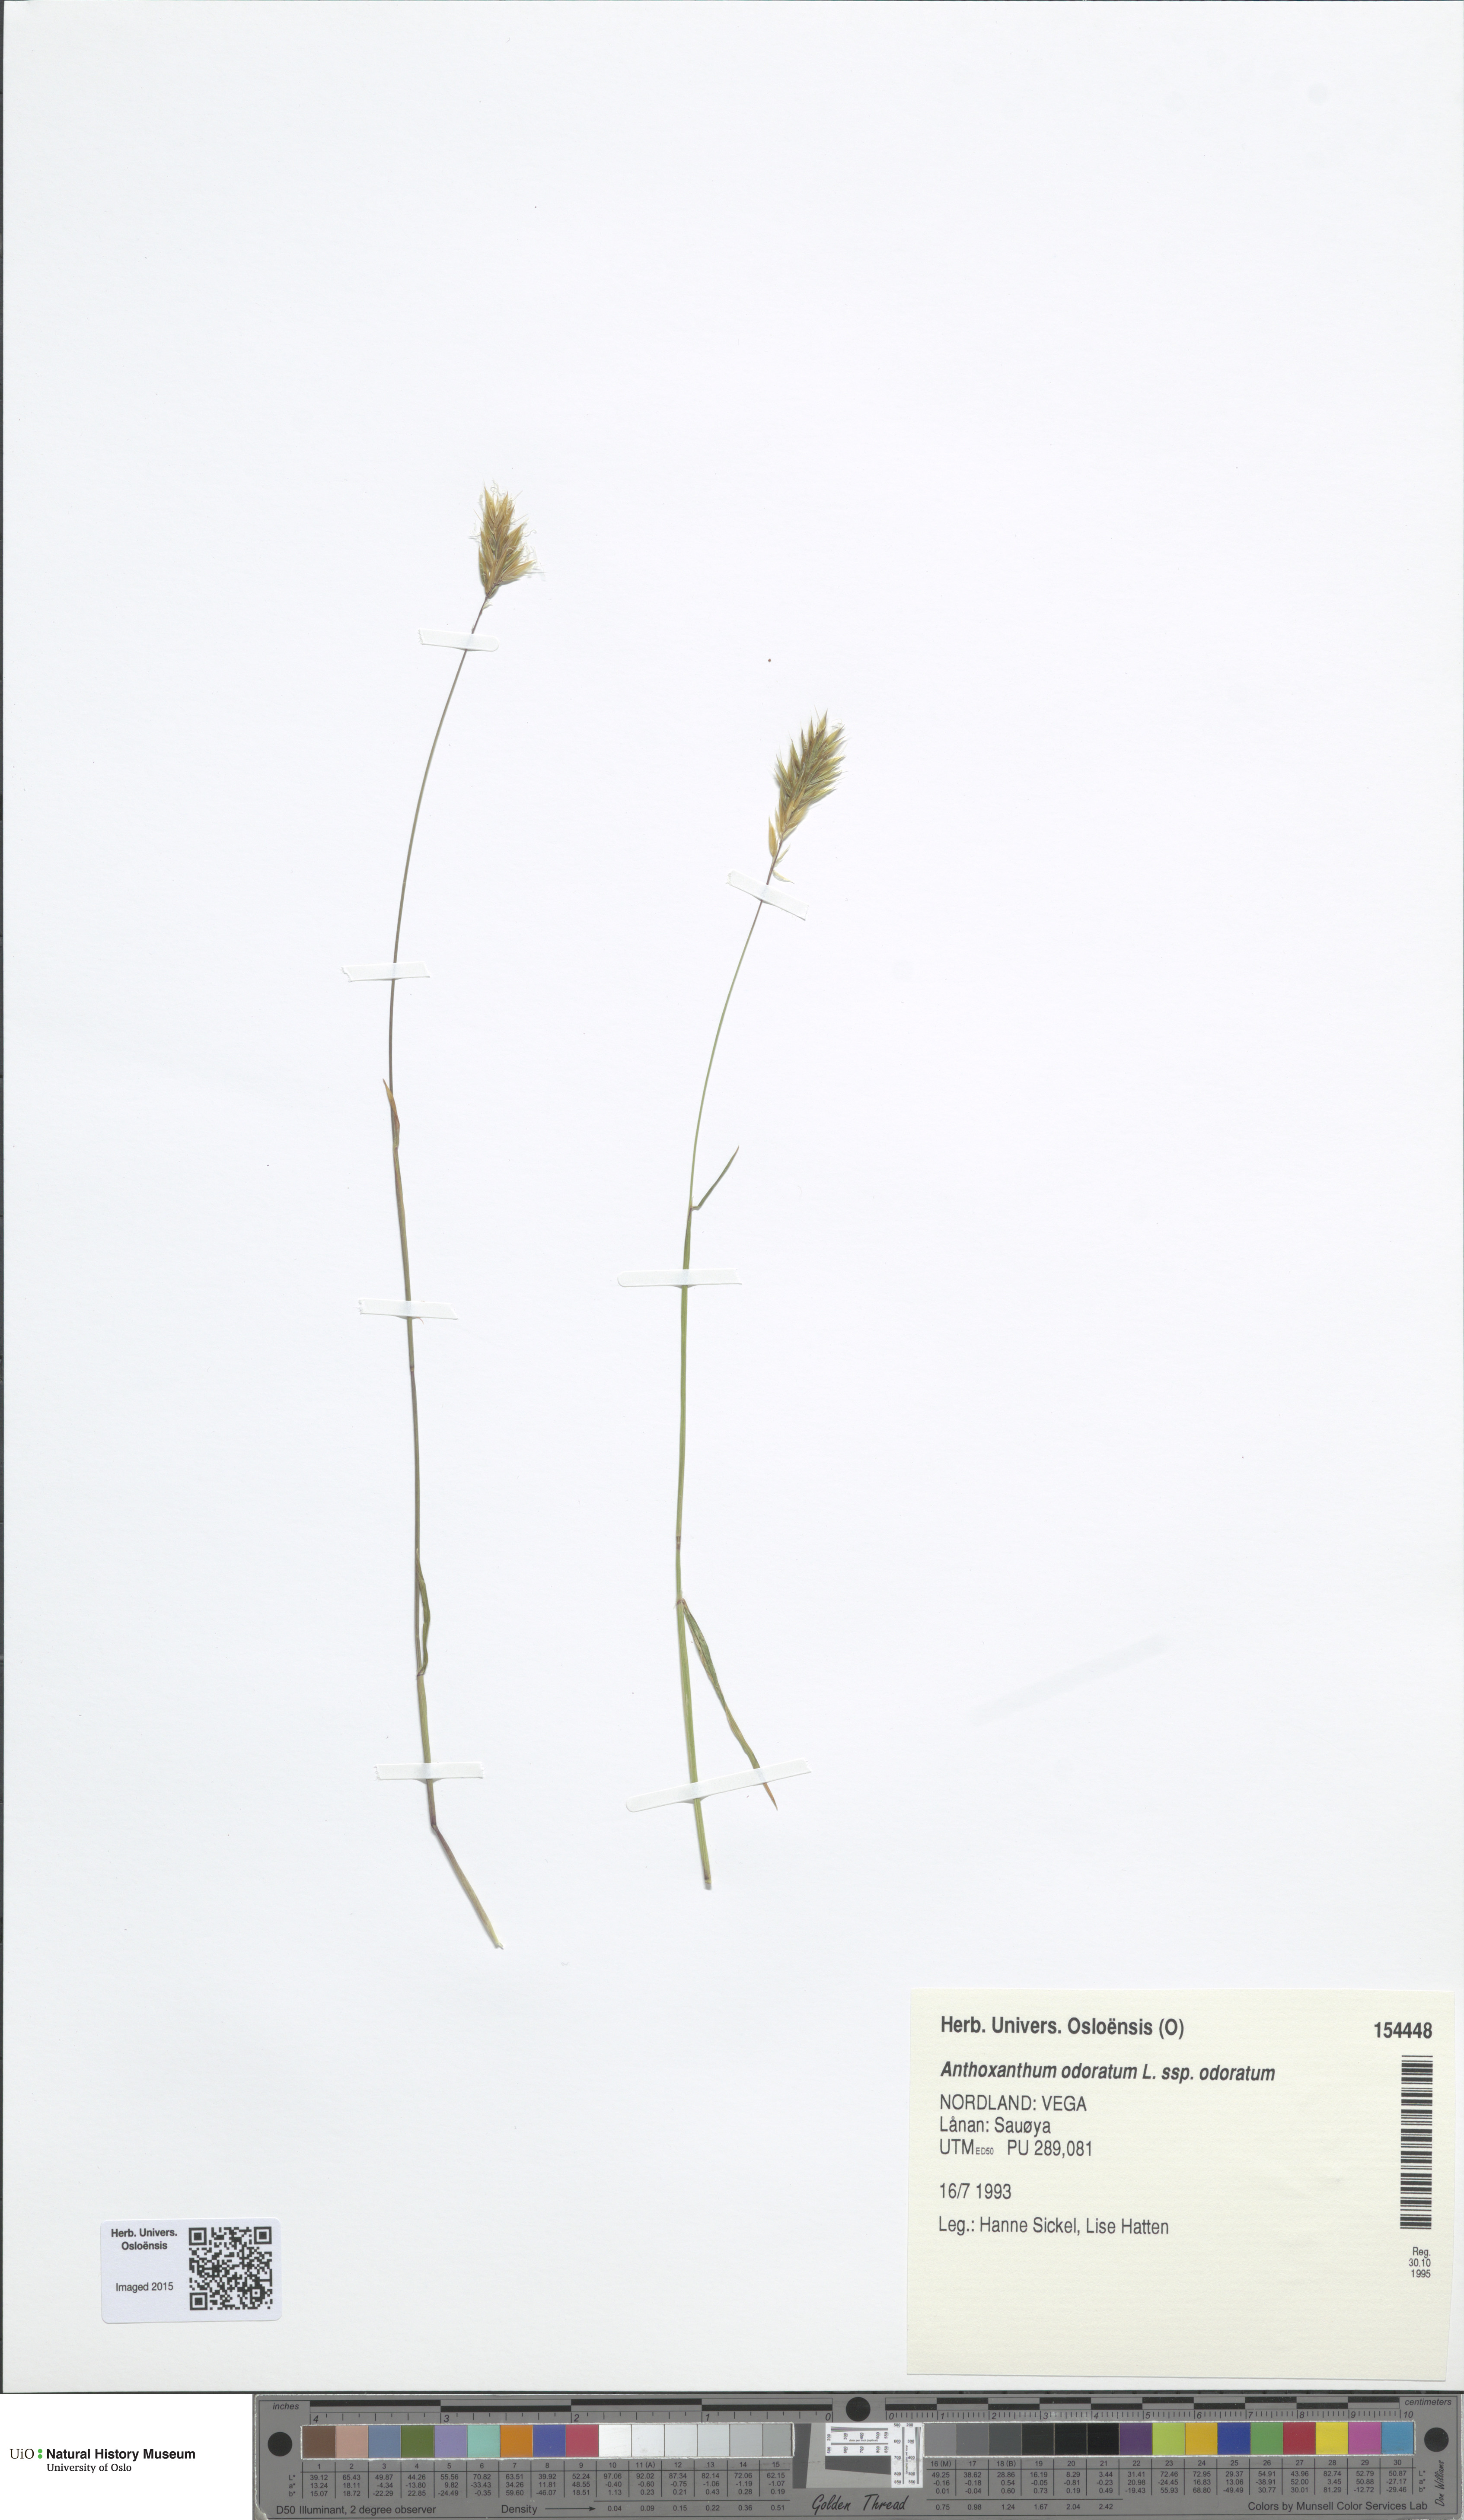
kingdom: Plantae
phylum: Tracheophyta
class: Liliopsida
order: Poales
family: Poaceae
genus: Anthoxanthum
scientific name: Anthoxanthum odoratum
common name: Sweet vernalgrass
